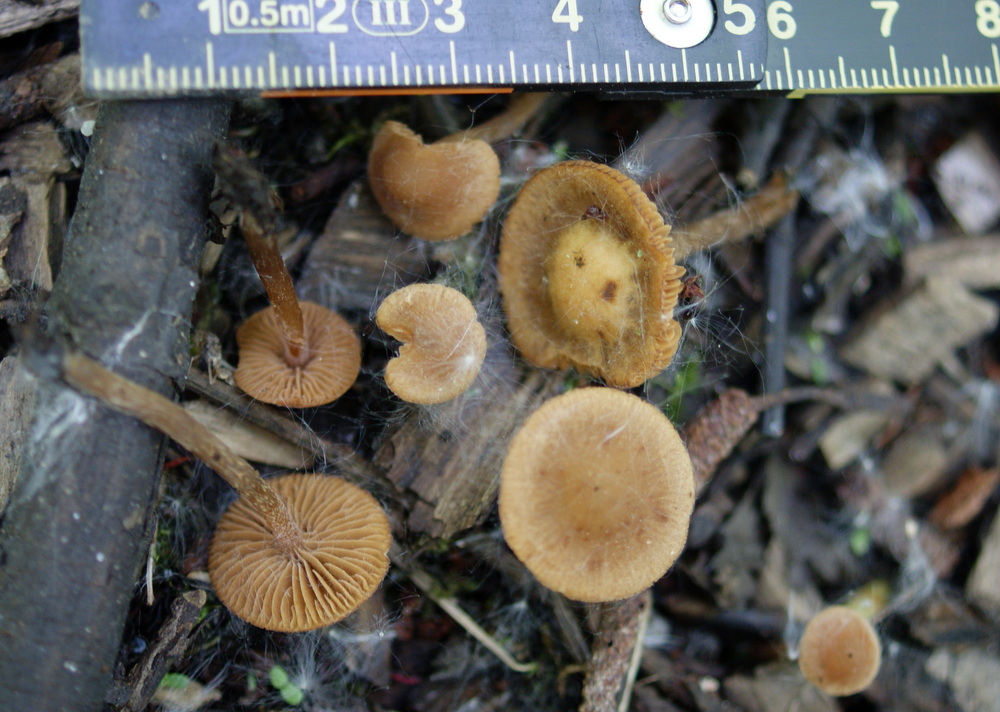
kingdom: Fungi
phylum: Basidiomycota
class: Agaricomycetes
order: Agaricales
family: Hymenogastraceae
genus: Naucoria
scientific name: Naucoria scolecina
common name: mørk elle-knaphat
